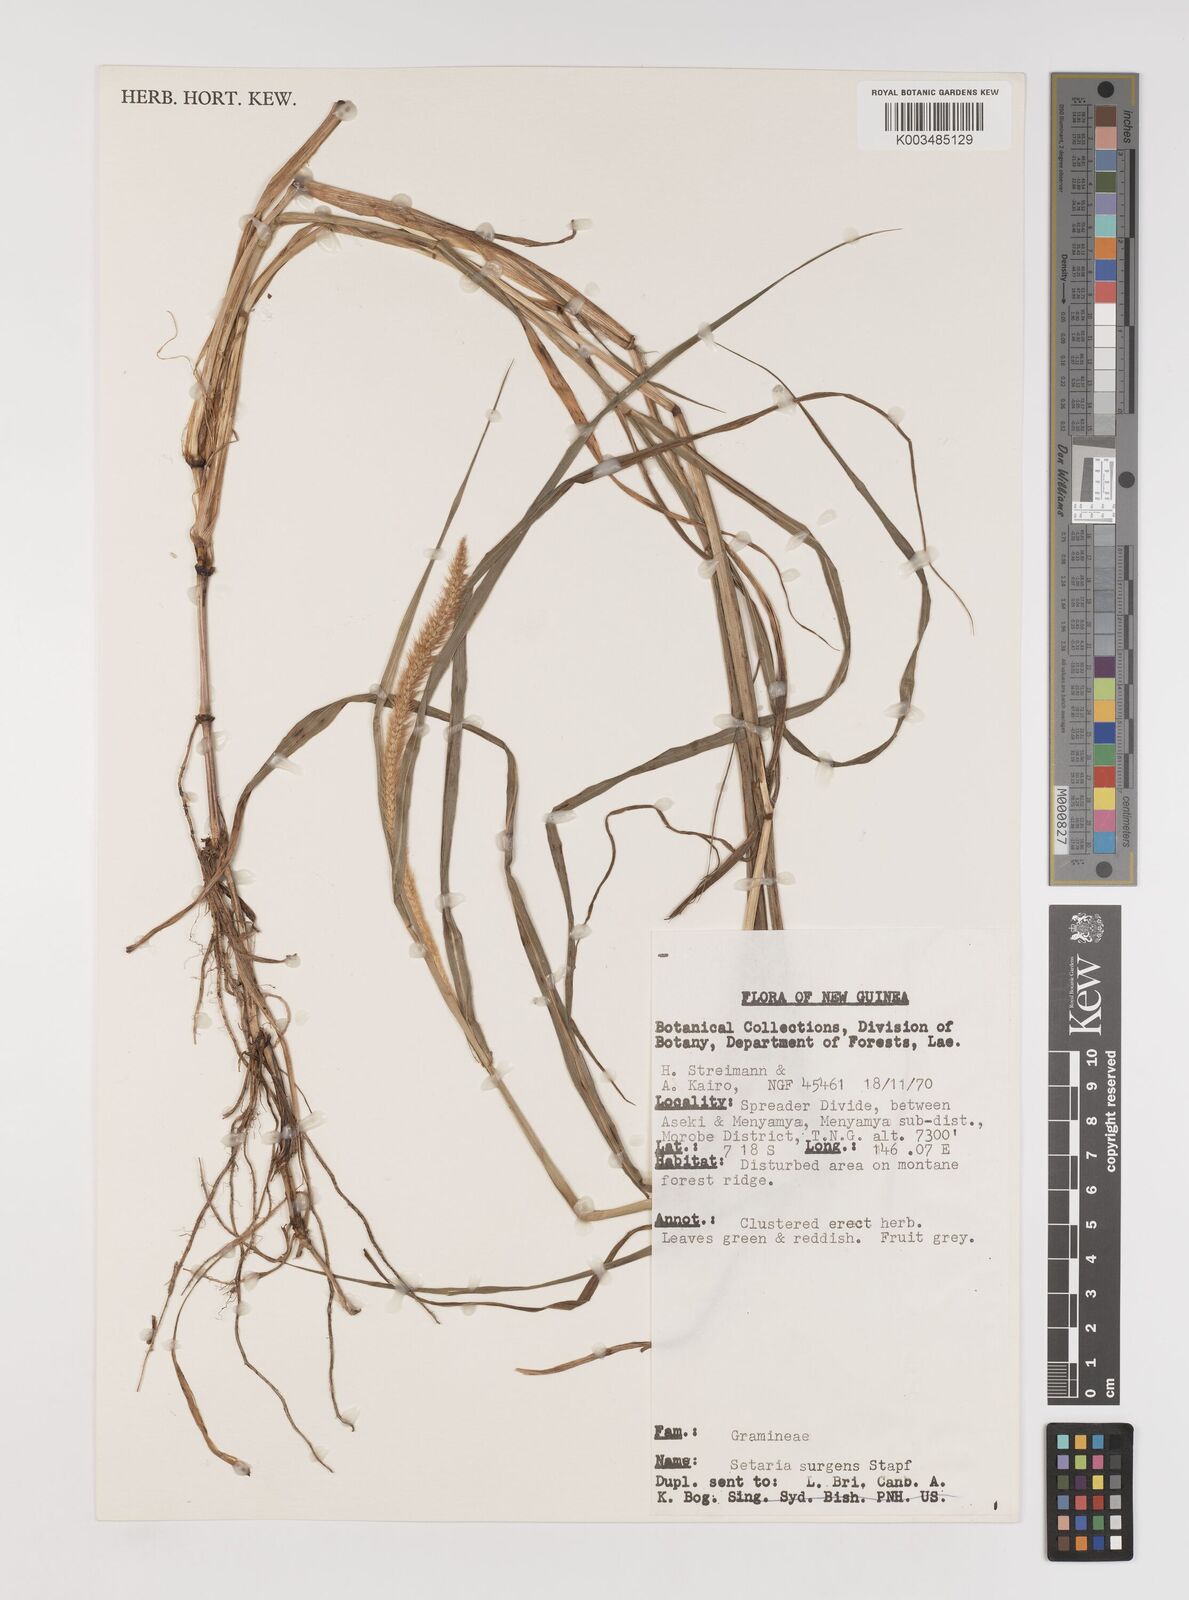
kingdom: Plantae
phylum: Tracheophyta
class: Liliopsida
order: Poales
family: Poaceae
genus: Setaria
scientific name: Setaria apiculata
